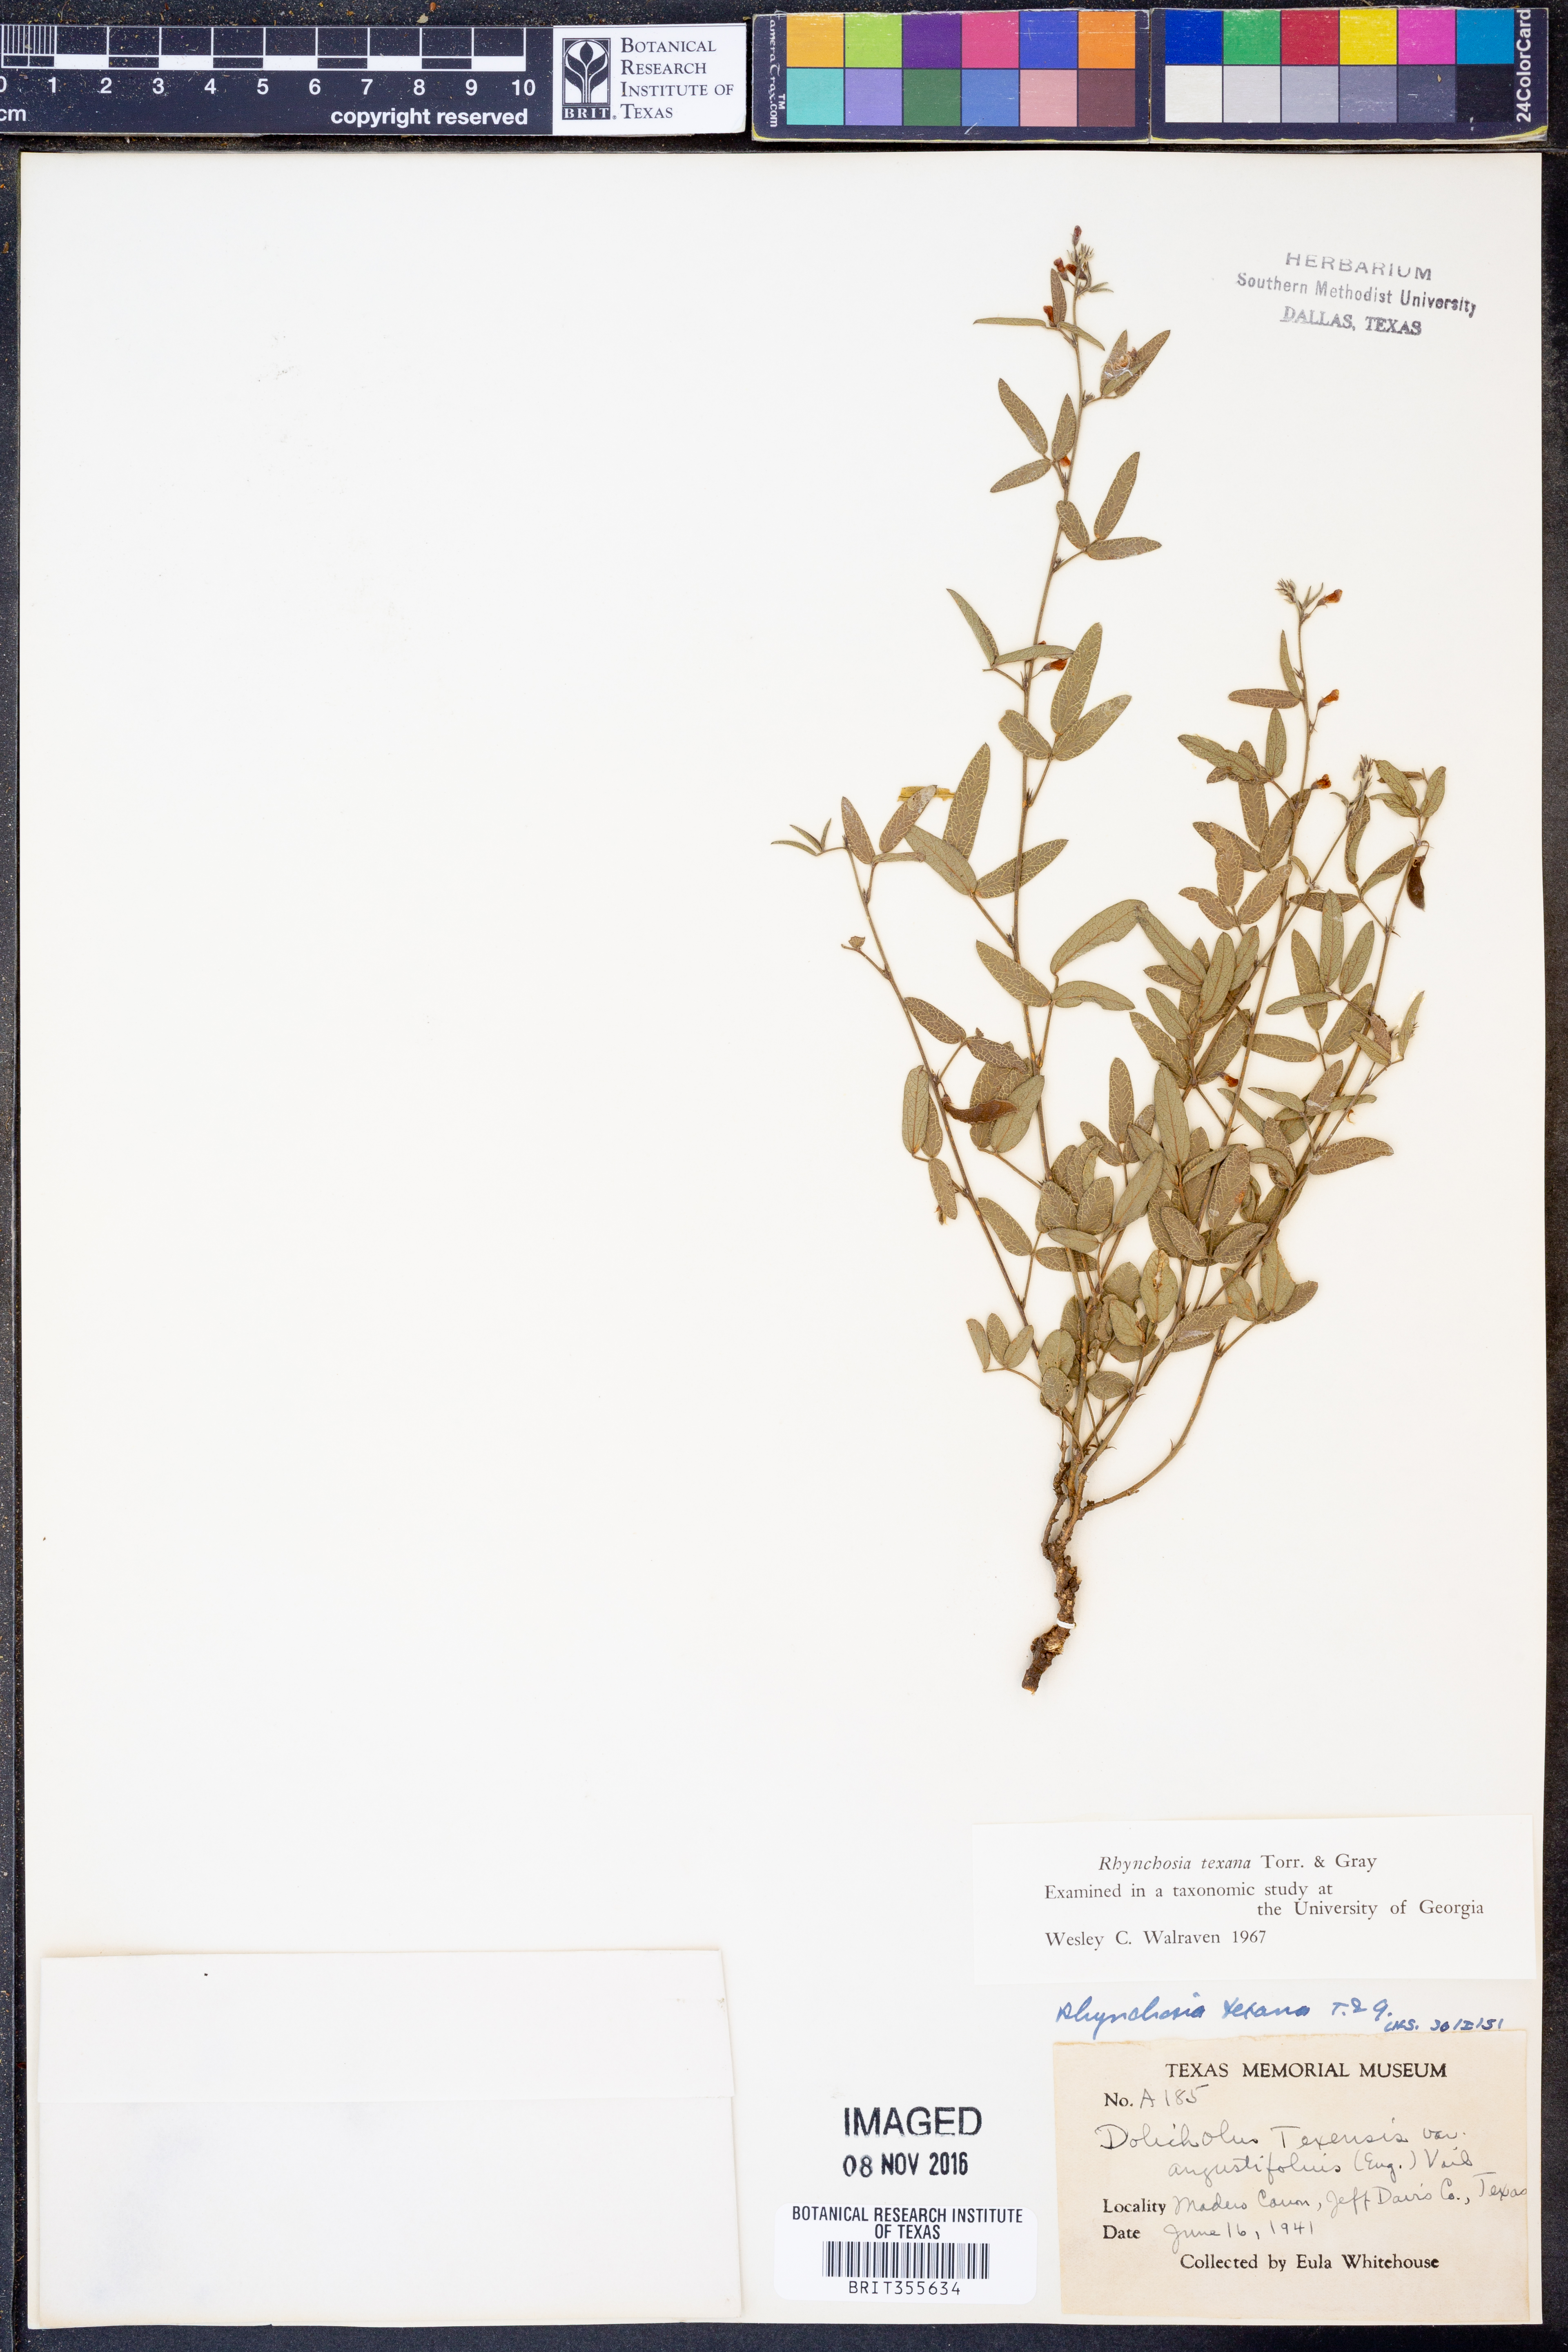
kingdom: Plantae
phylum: Tracheophyta
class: Magnoliopsida
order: Fabales
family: Fabaceae
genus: Rhynchosia
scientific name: Rhynchosia senna
